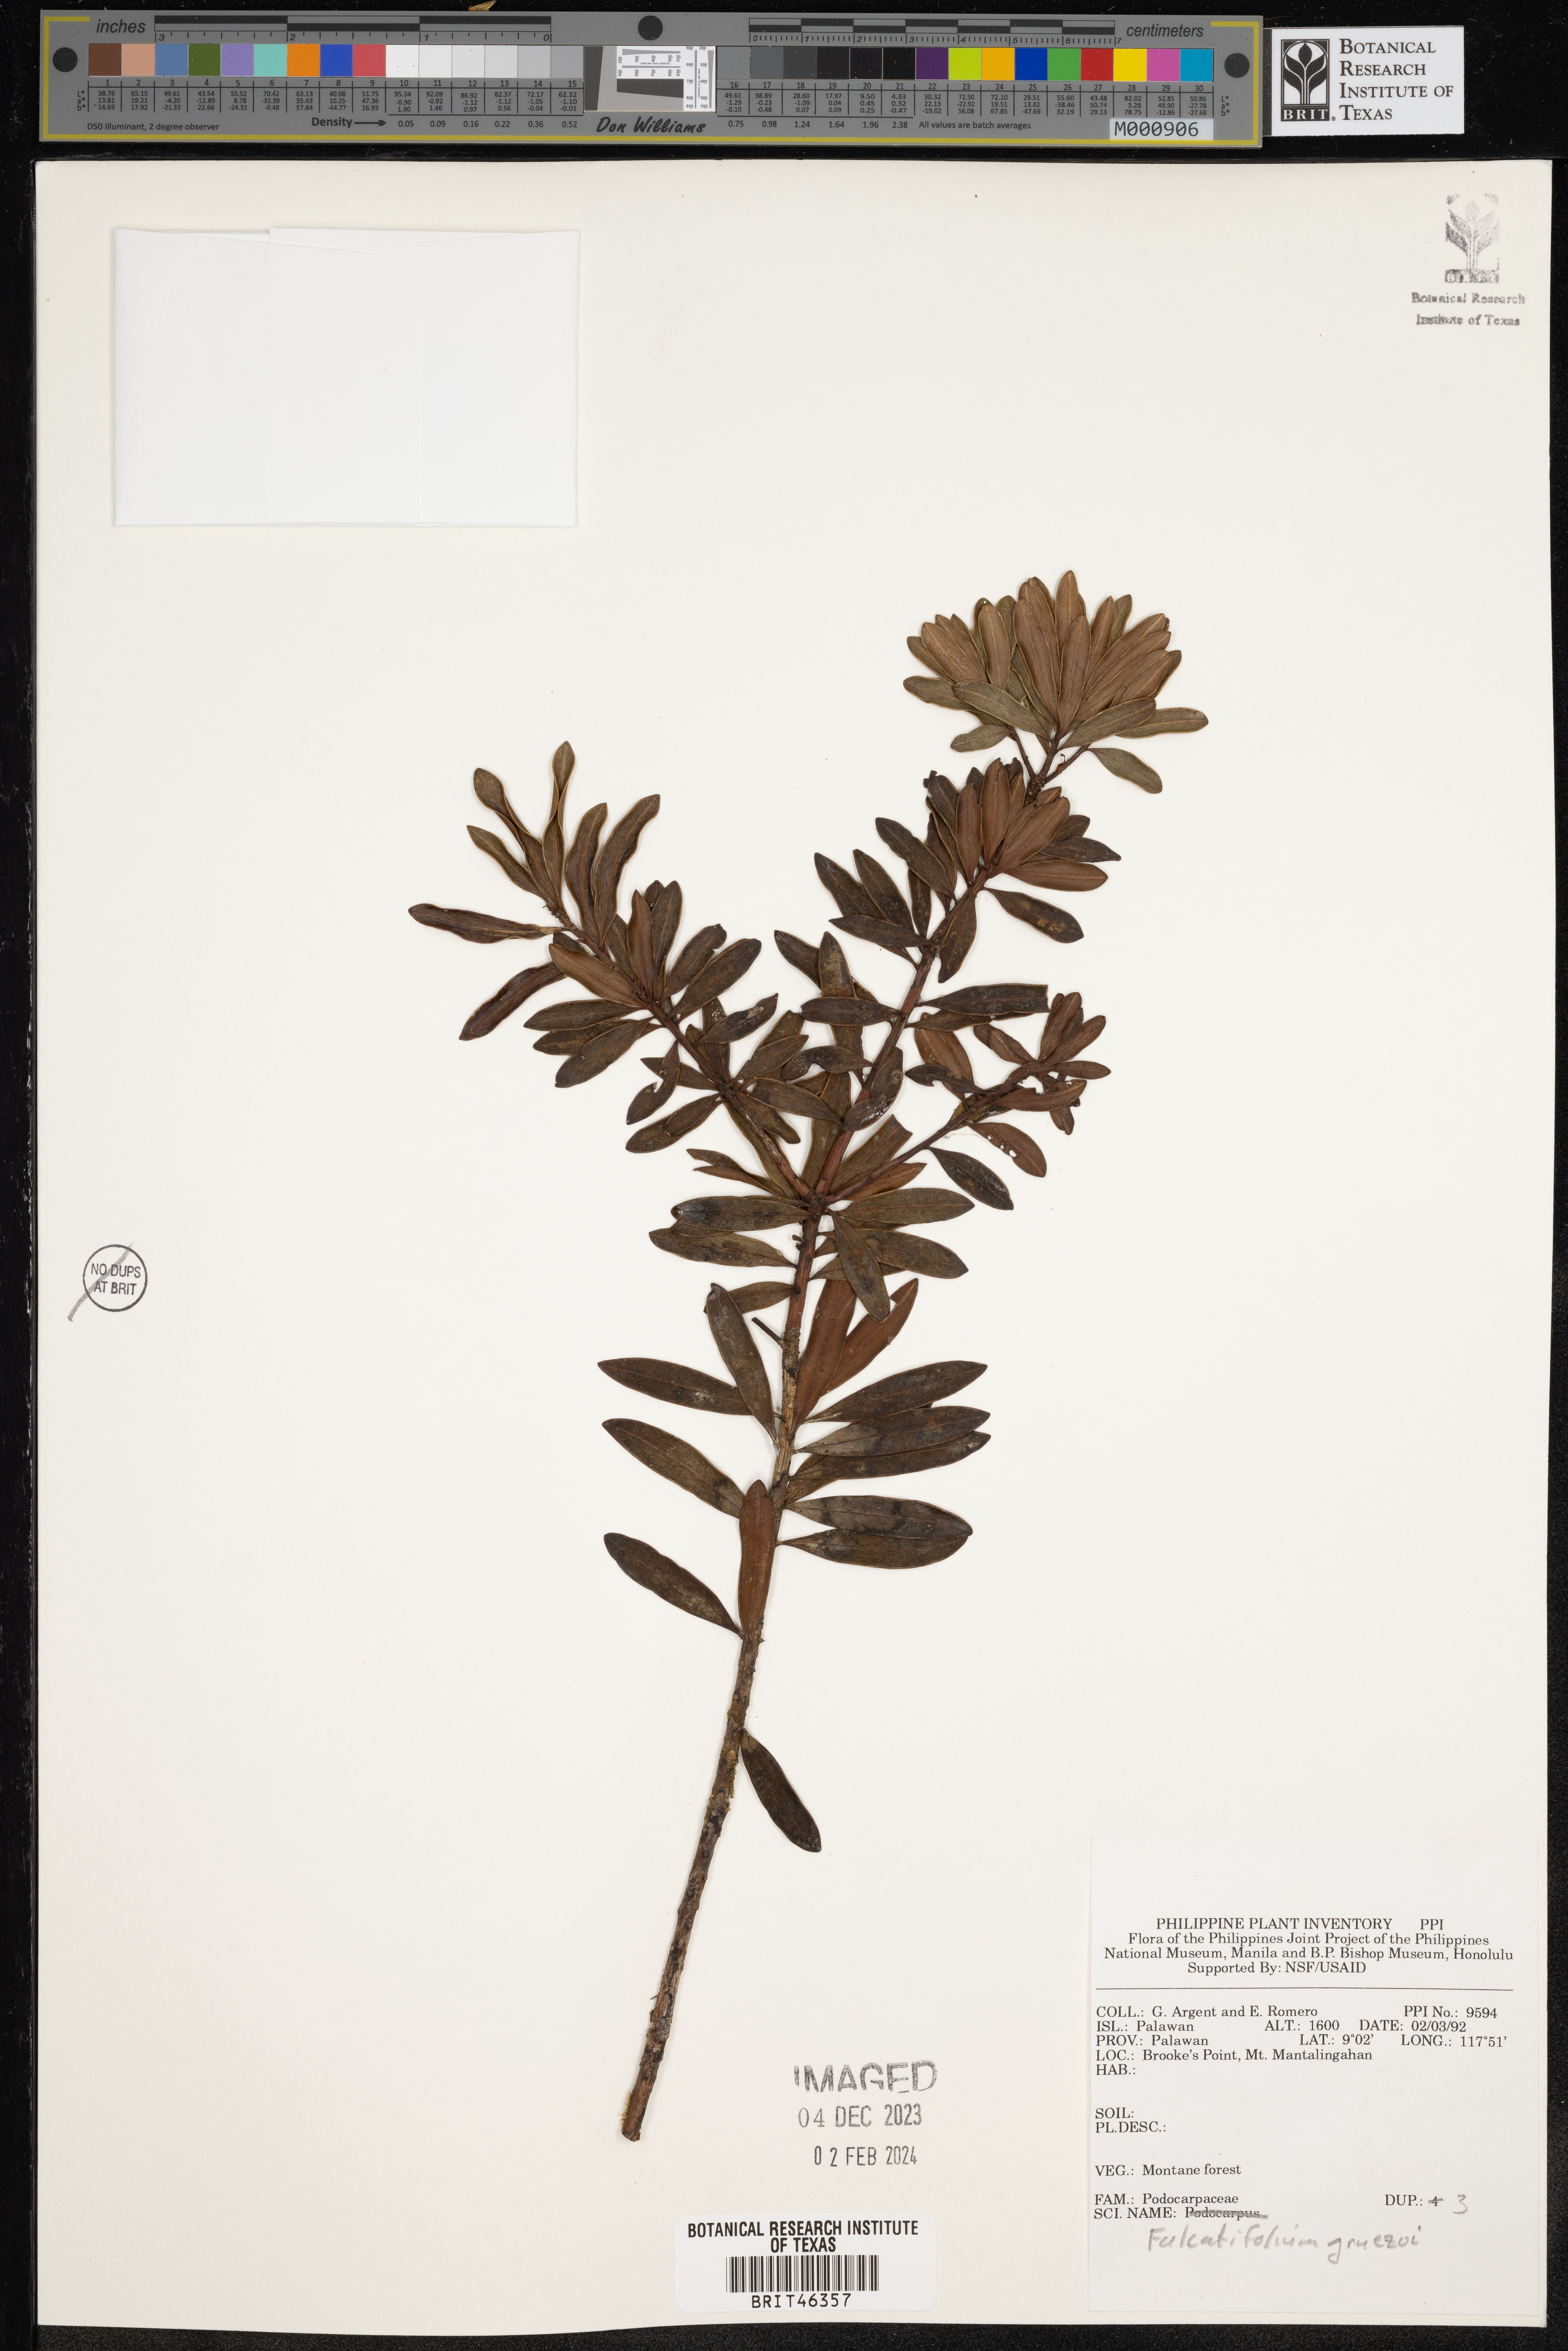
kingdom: Plantae
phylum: Tracheophyta
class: Pinopsida
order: Pinales
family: Podocarpaceae
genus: Falcatifolium
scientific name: Falcatifolium gruezoi
